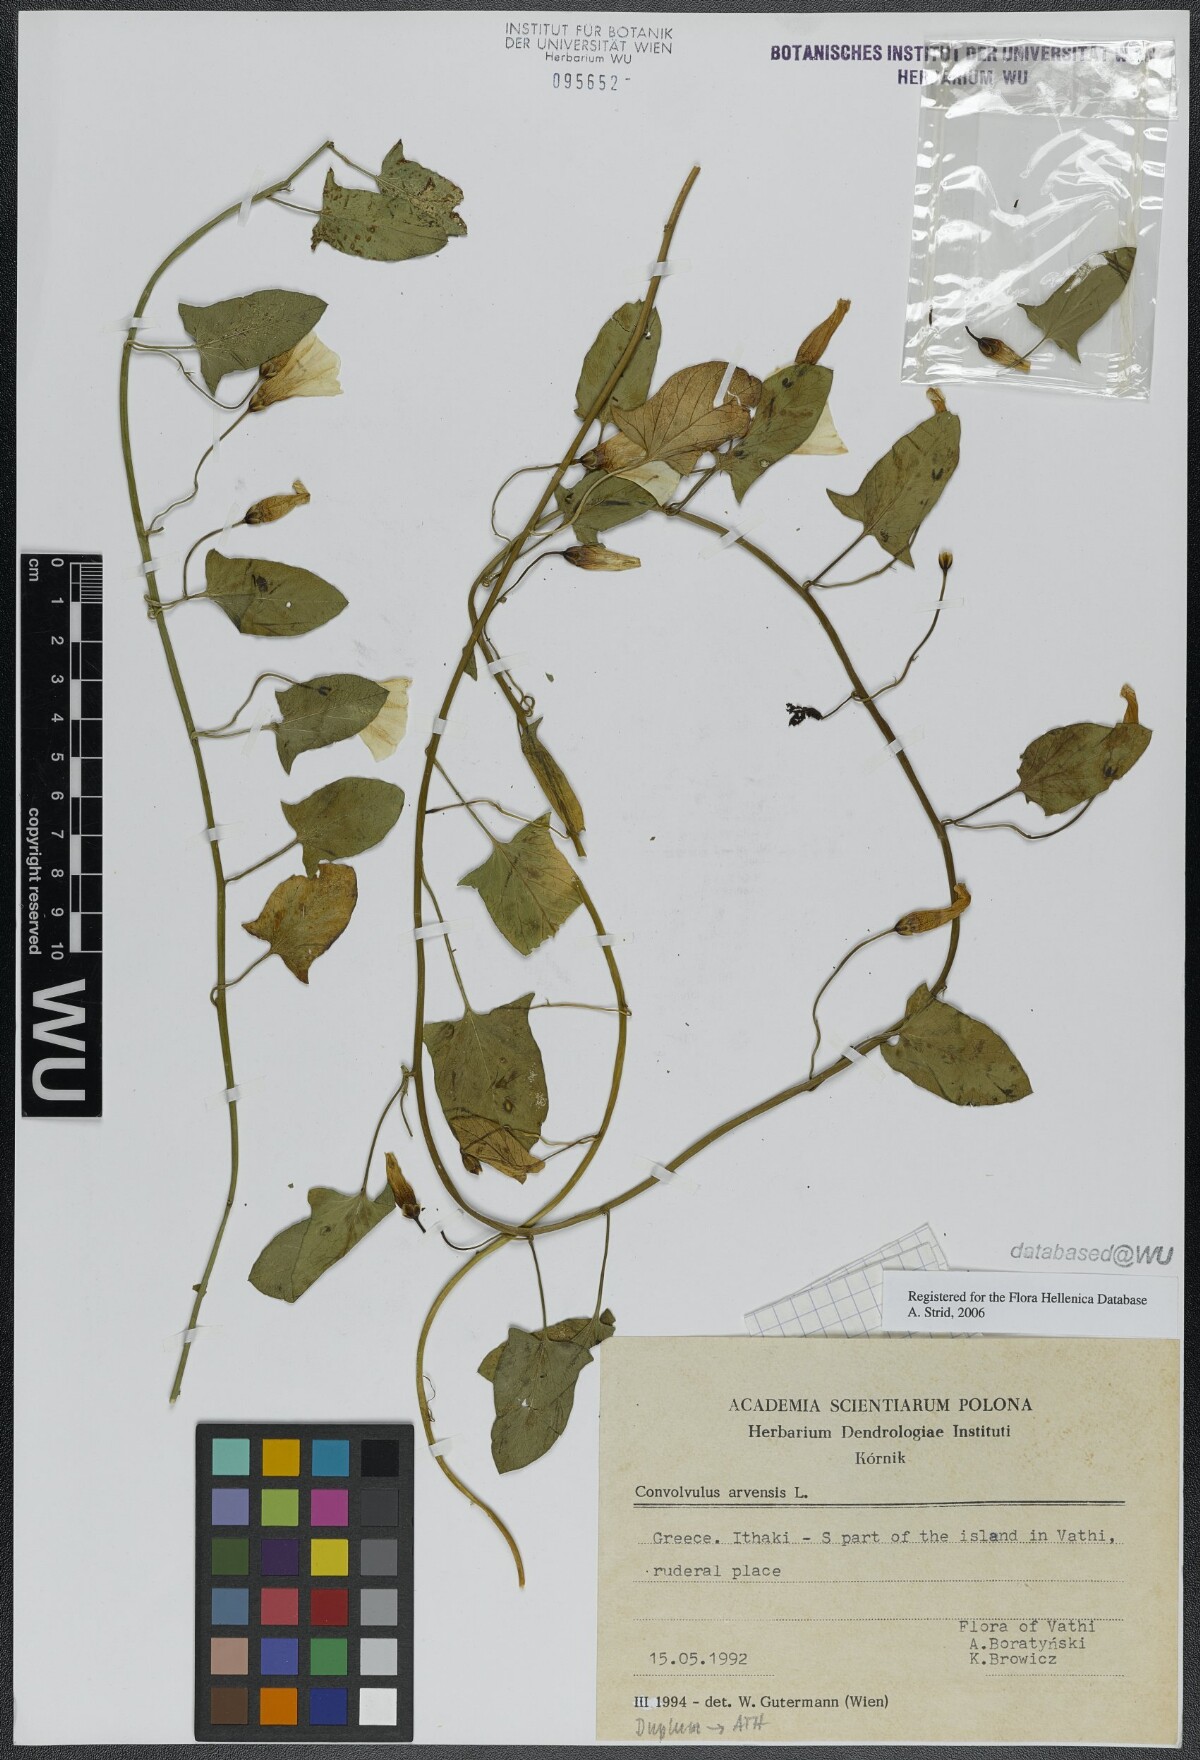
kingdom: Plantae
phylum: Tracheophyta
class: Magnoliopsida
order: Solanales
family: Convolvulaceae
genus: Convolvulus
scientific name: Convolvulus arvensis
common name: Field bindweed
